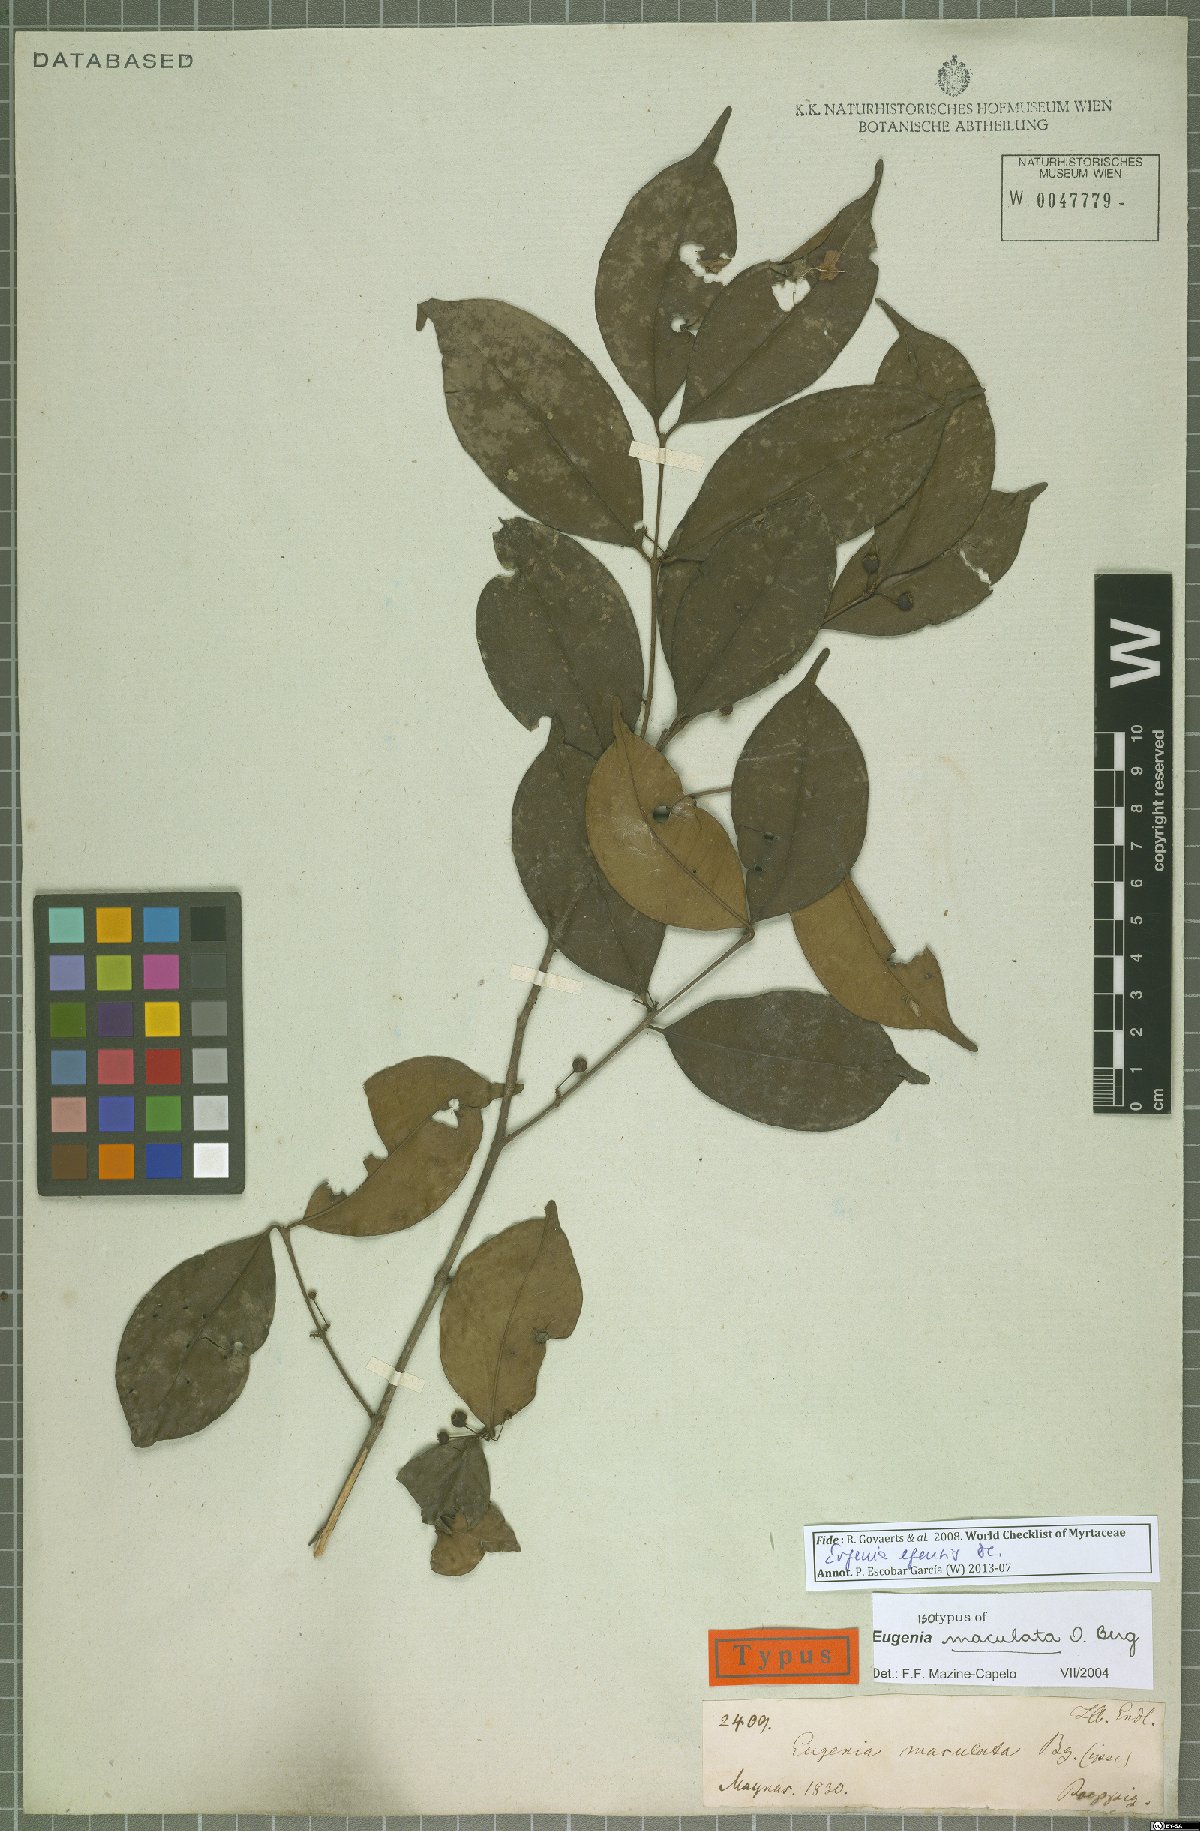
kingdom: Plantae
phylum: Tracheophyta
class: Magnoliopsida
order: Myrtales
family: Myrtaceae
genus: Eugenia
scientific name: Eugenia egensis
